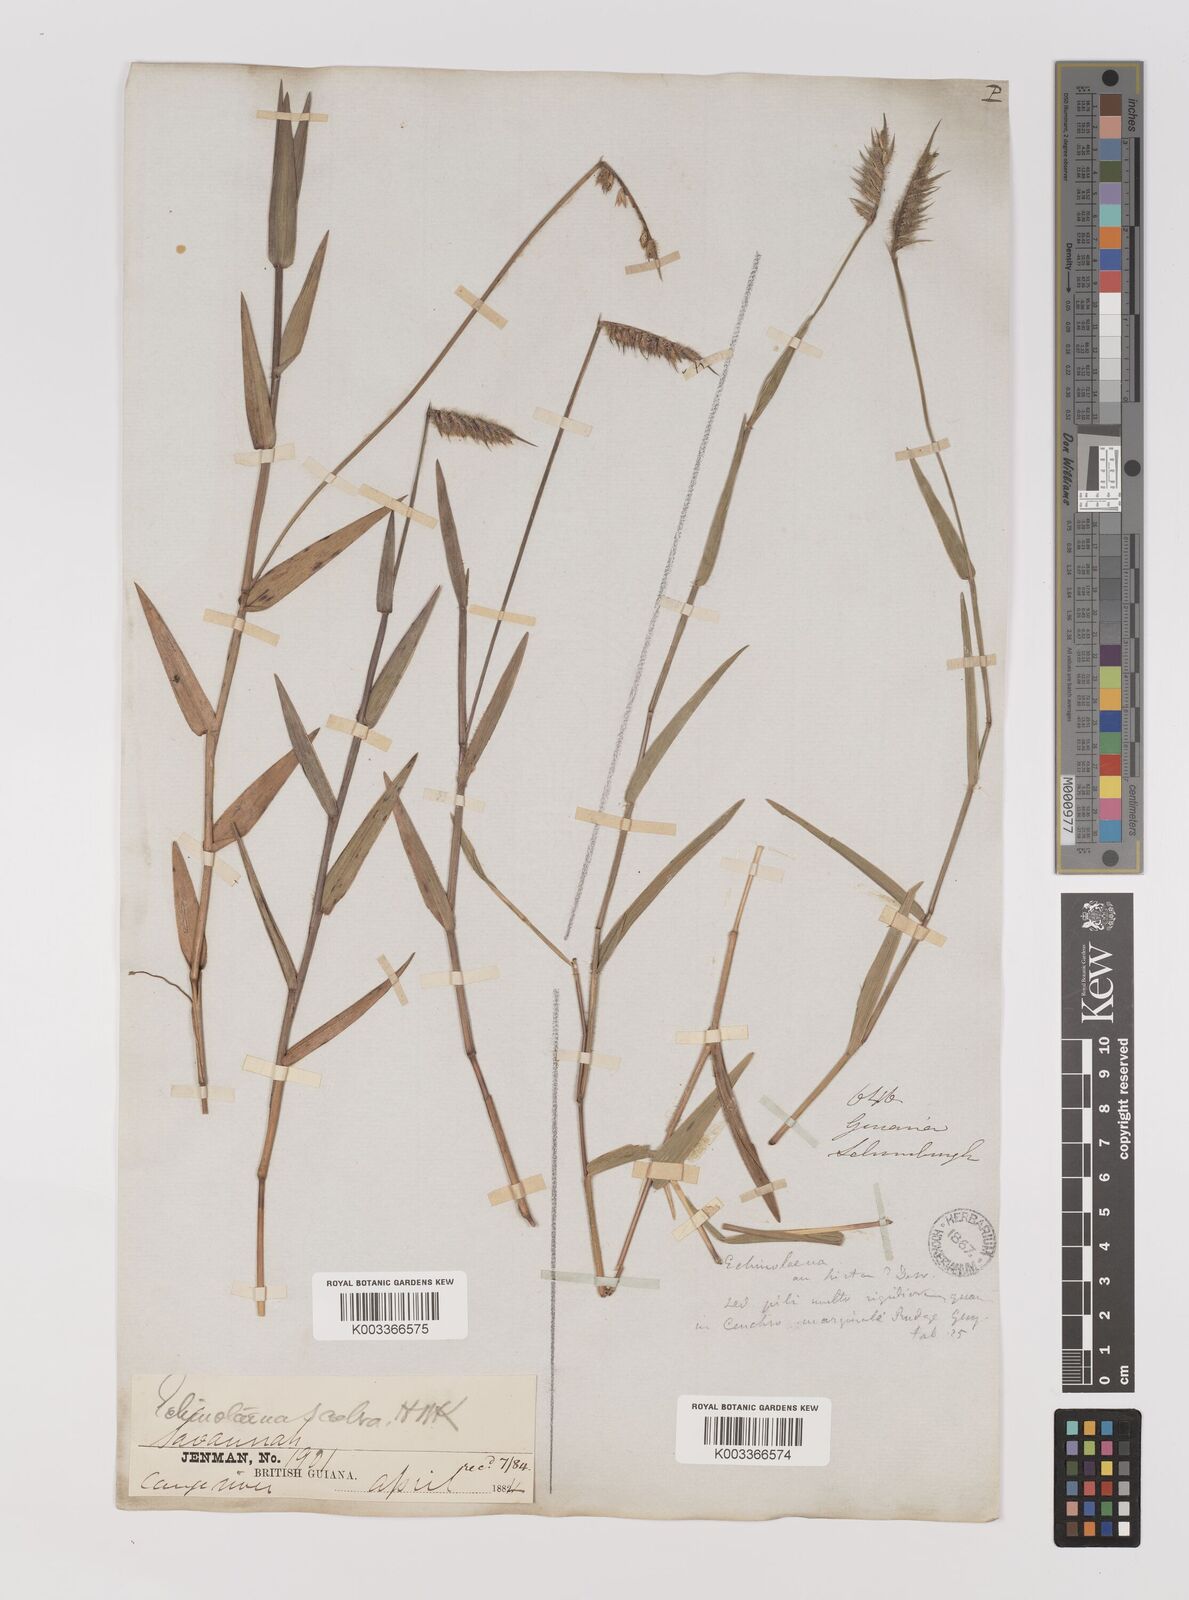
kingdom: Plantae
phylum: Tracheophyta
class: Liliopsida
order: Poales
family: Poaceae
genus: Echinolaena
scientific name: Echinolaena inflexa
